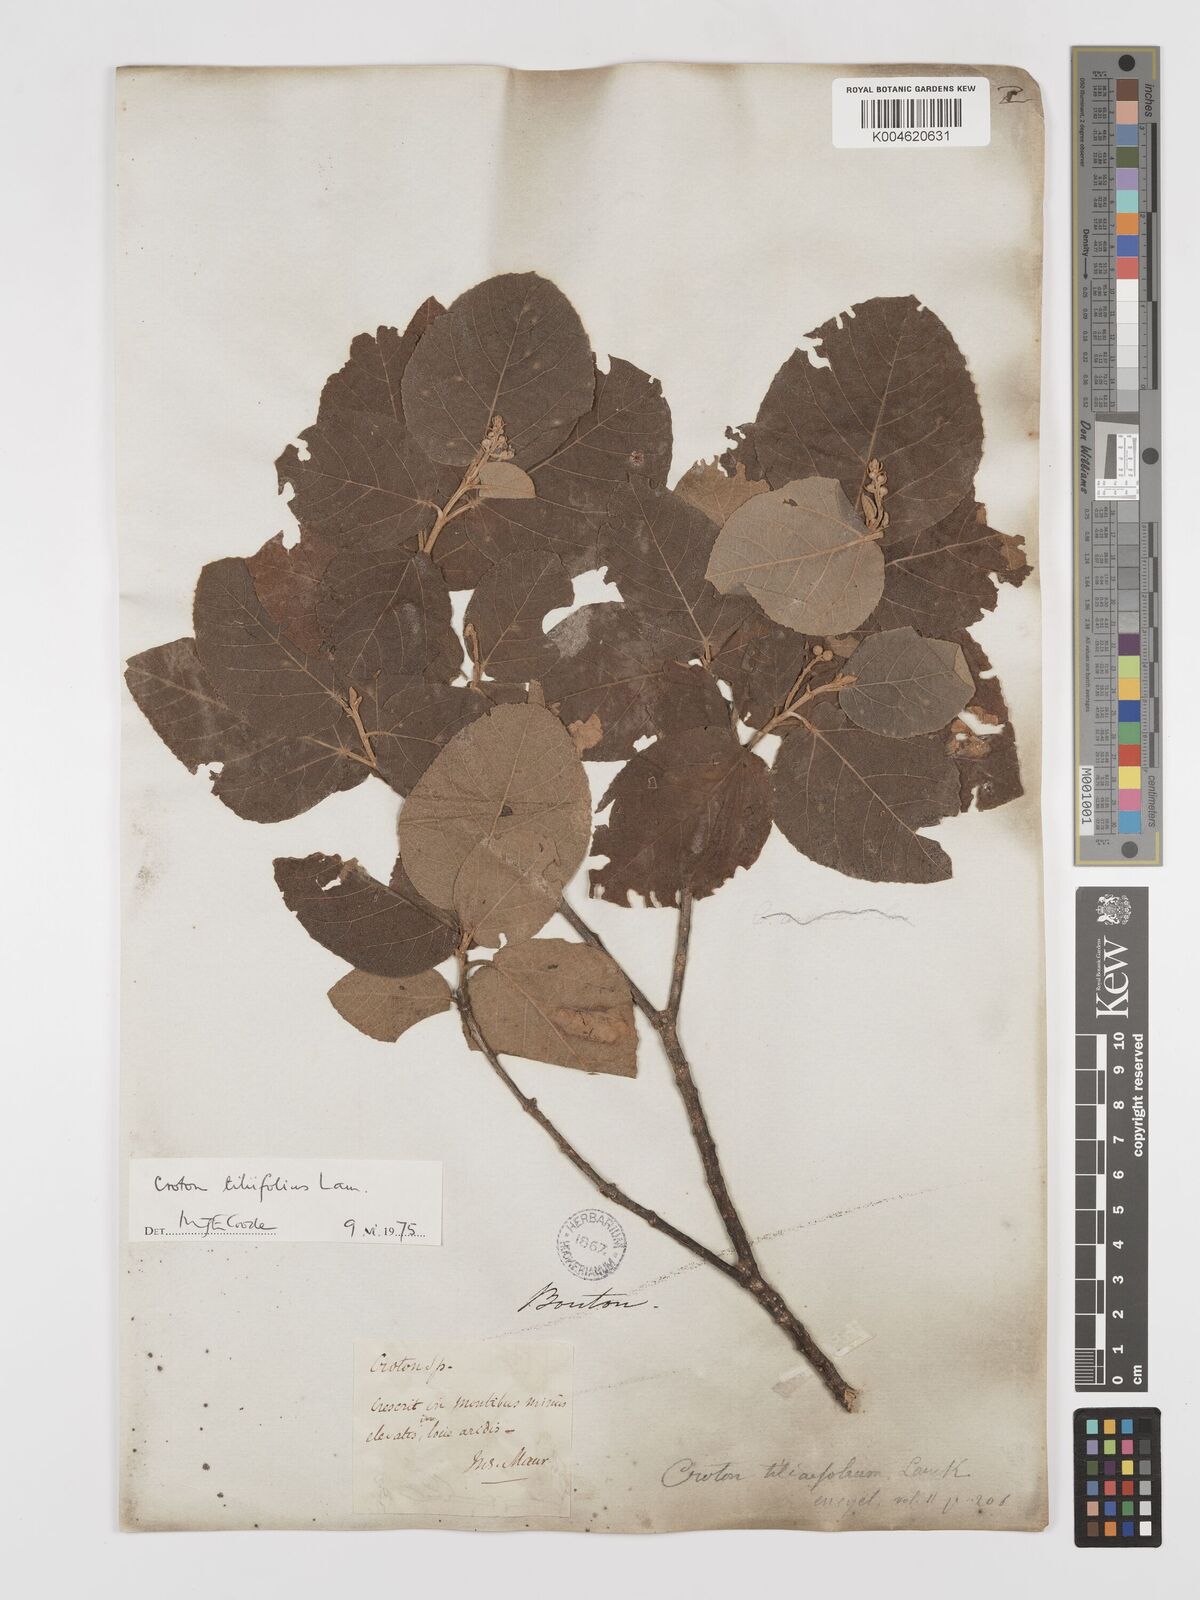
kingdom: Plantae
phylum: Tracheophyta
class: Magnoliopsida
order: Malpighiales
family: Euphorbiaceae
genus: Croton
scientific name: Croton
